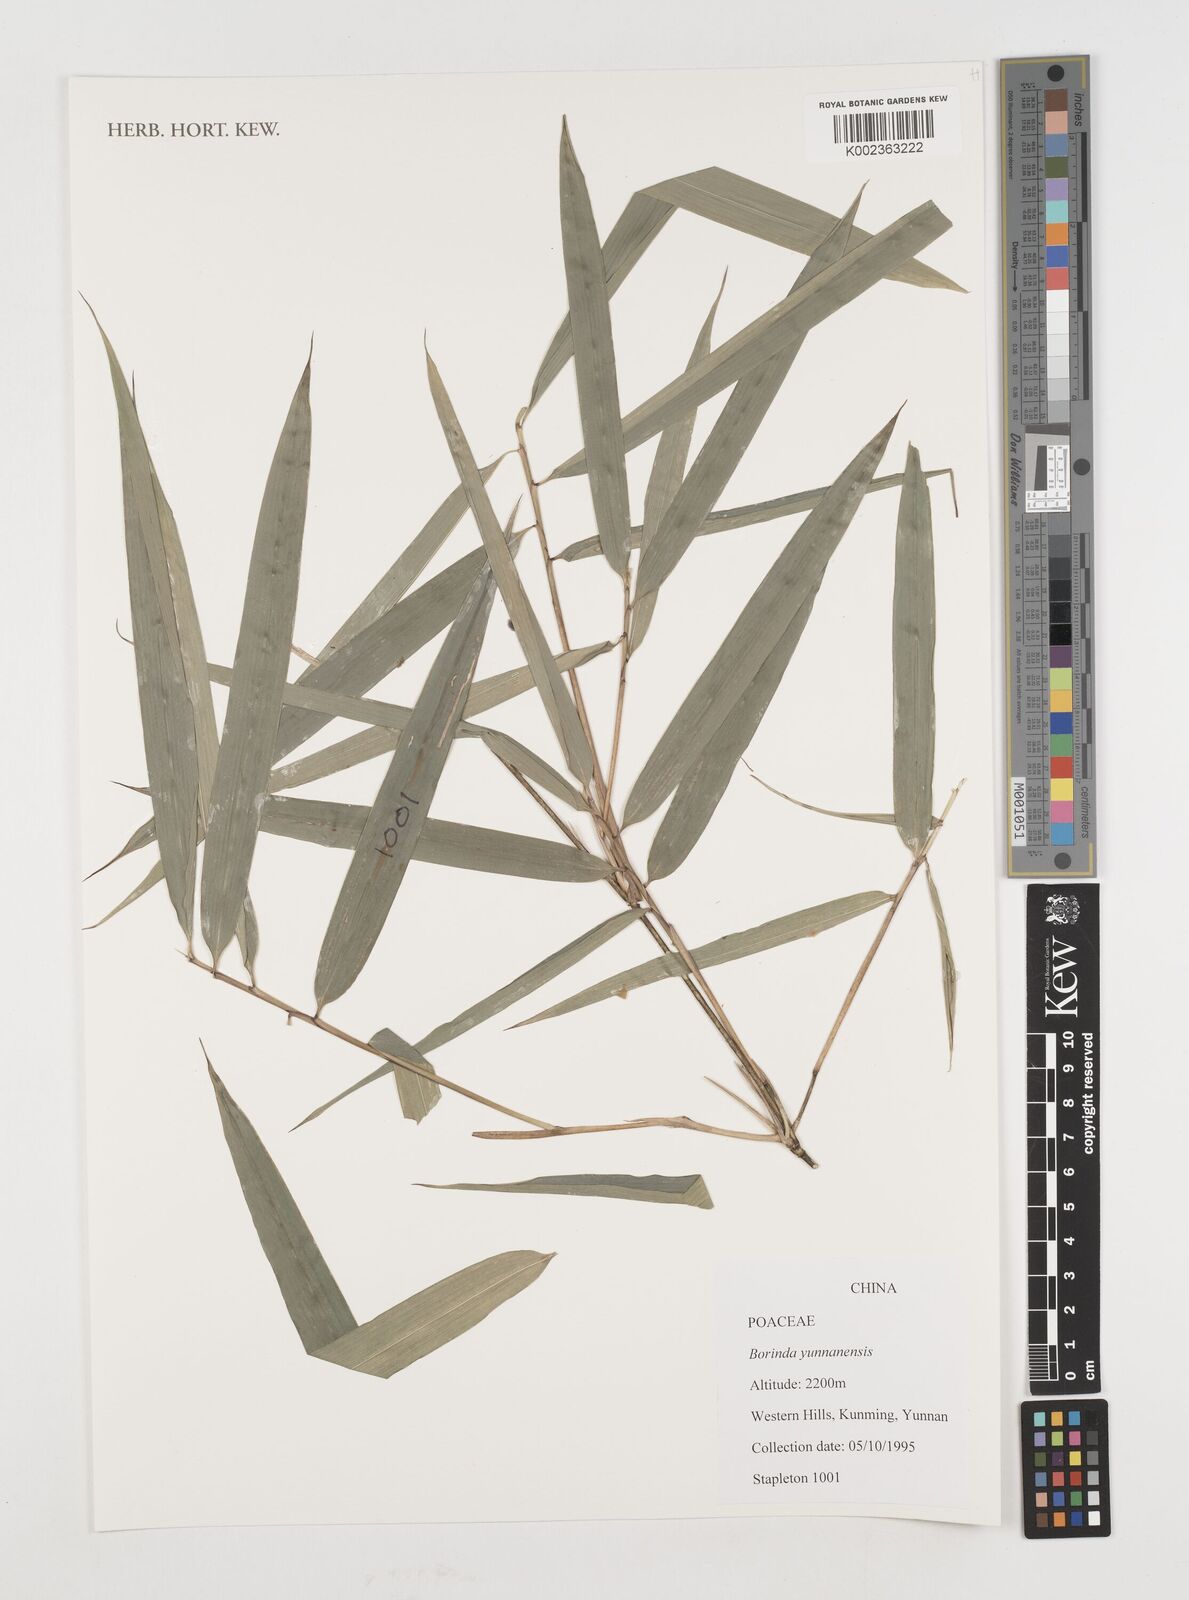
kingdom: Plantae
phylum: Tracheophyta
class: Liliopsida
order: Poales
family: Poaceae
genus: Fargesia
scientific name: Fargesia yunnanensis
